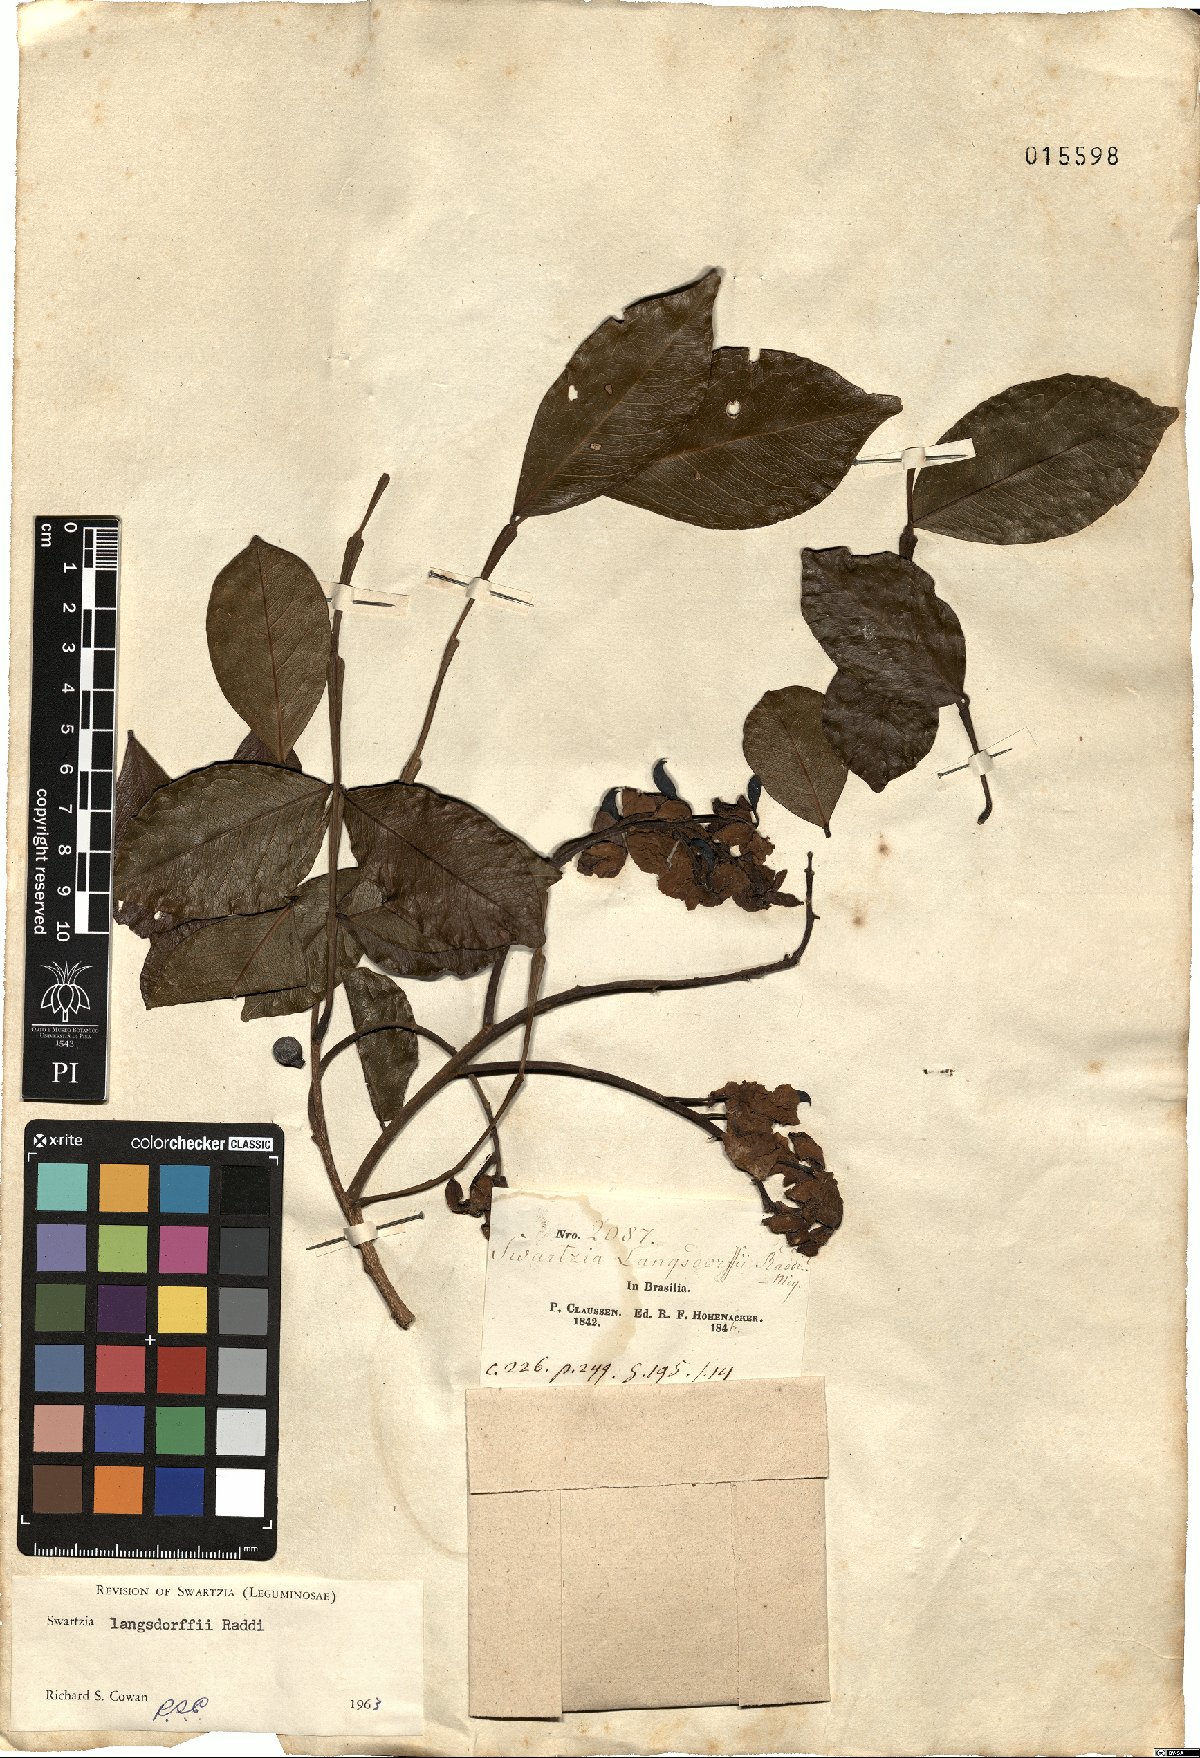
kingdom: Plantae
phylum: Tracheophyta
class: Magnoliopsida
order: Fabales
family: Fabaceae
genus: Swartzia
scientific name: Swartzia langsdorffii
